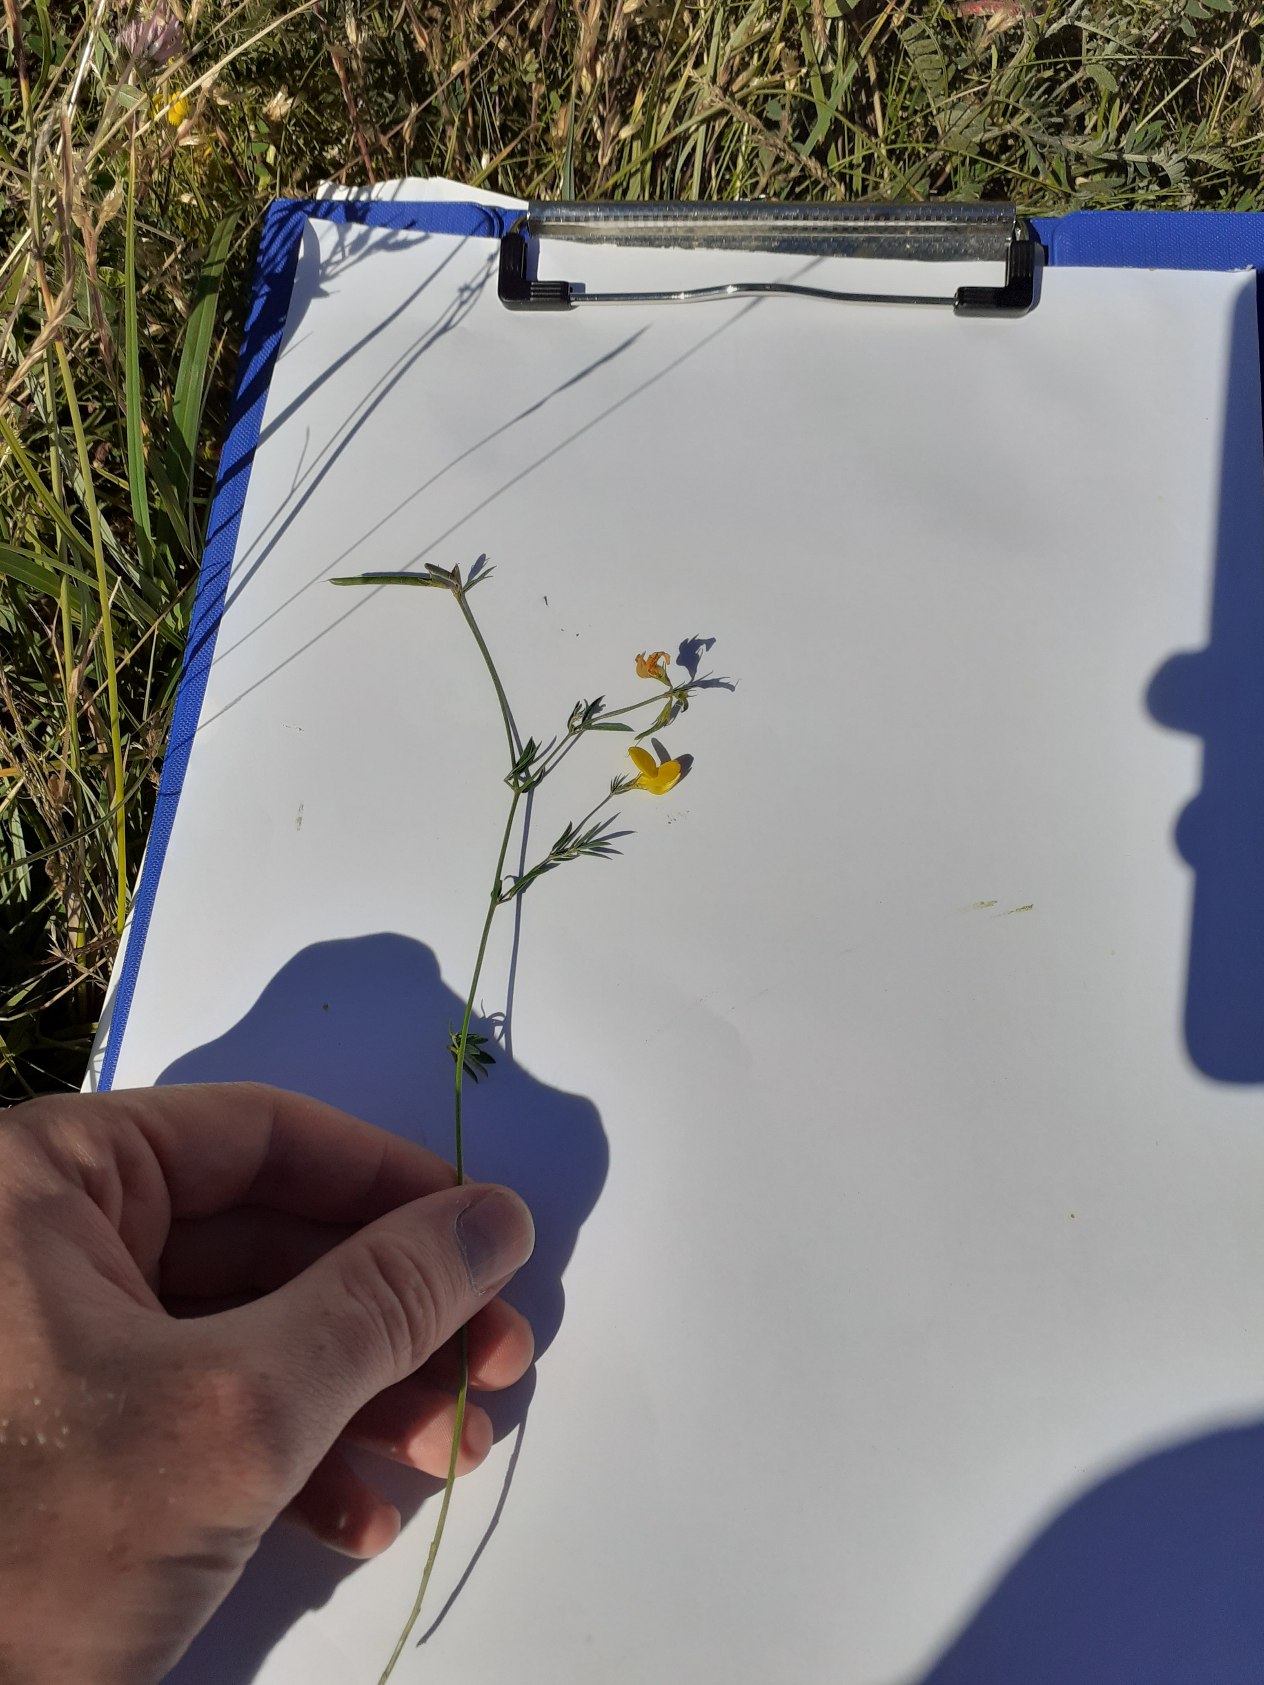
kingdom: Plantae
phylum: Tracheophyta
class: Magnoliopsida
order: Fabales
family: Fabaceae
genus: Lotus
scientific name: Lotus tenuis
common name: Smalbladet kællingetand
